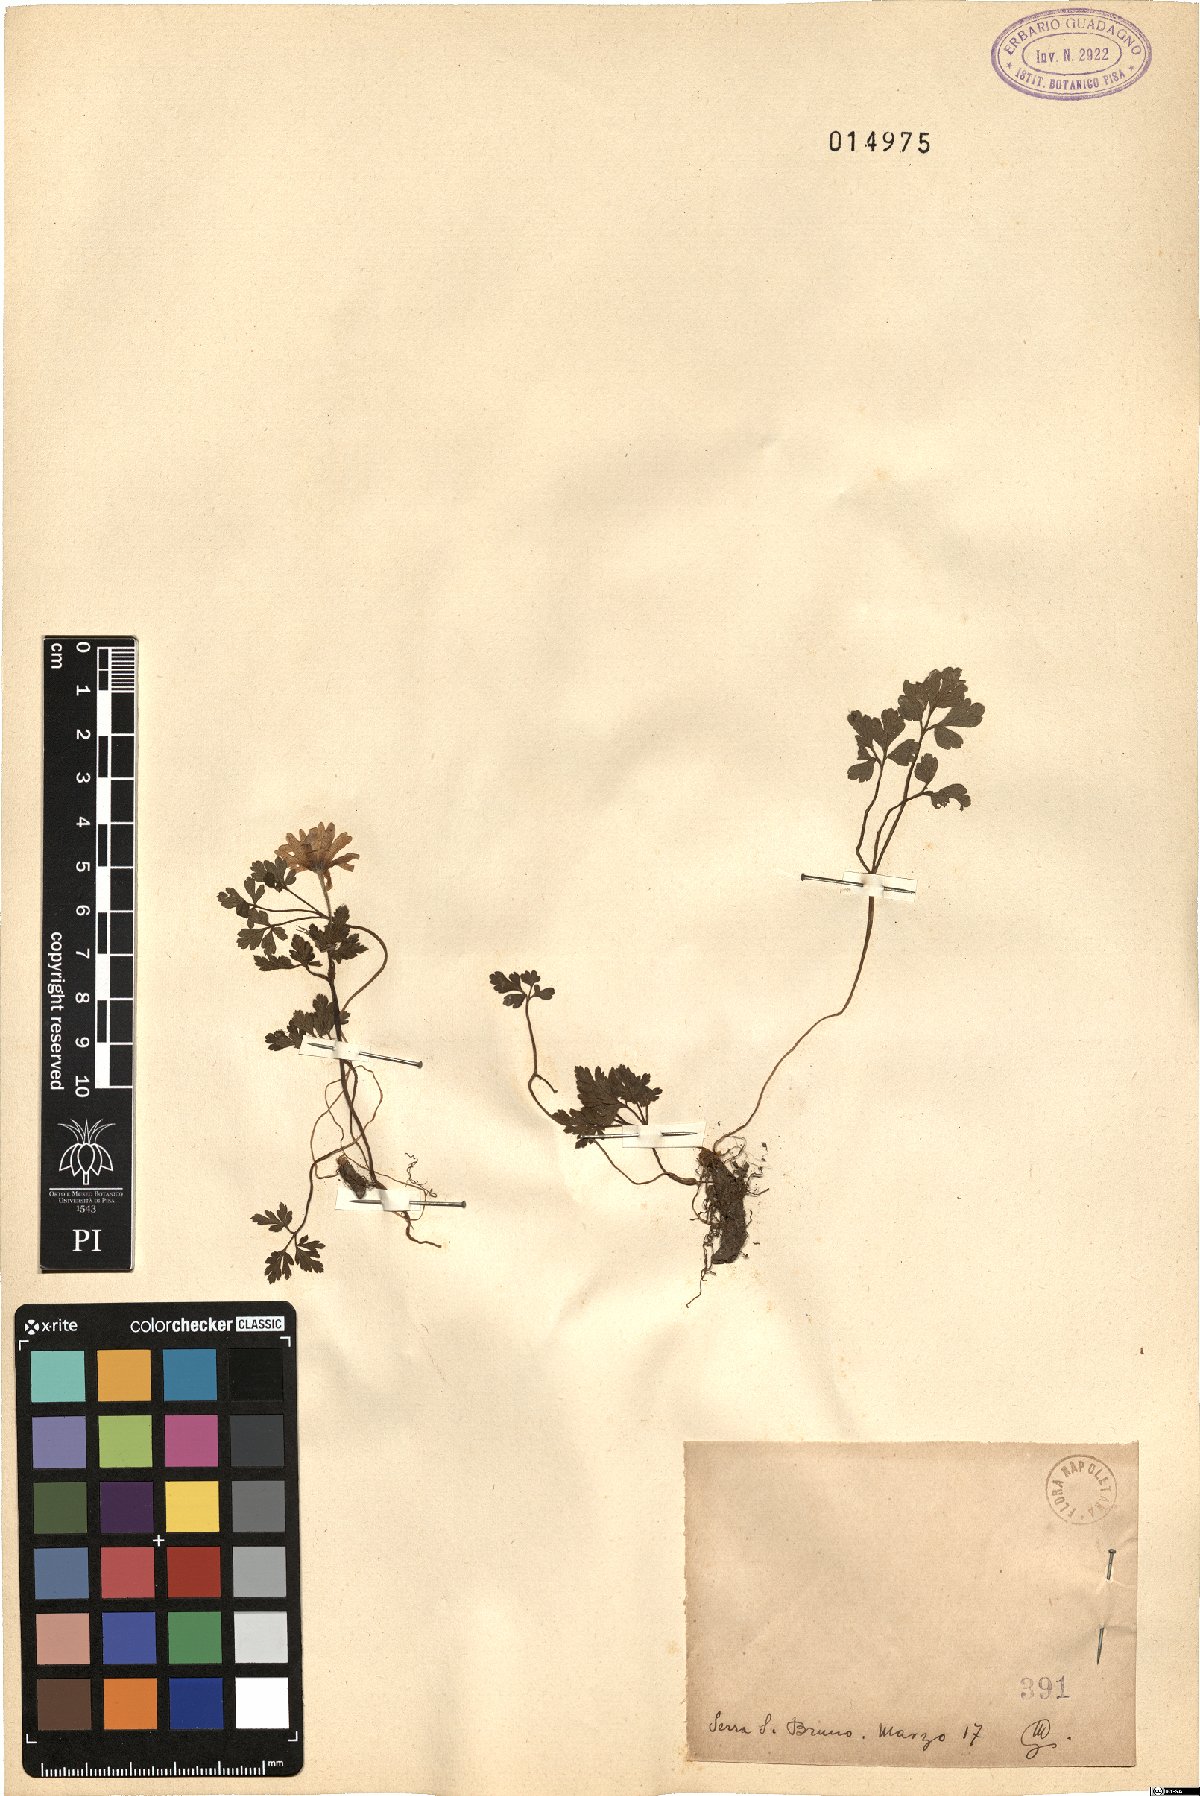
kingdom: Plantae
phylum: Tracheophyta
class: Magnoliopsida
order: Ranunculales
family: Ranunculaceae
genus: Anemone
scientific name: Anemone apennina
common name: Blue anemone
